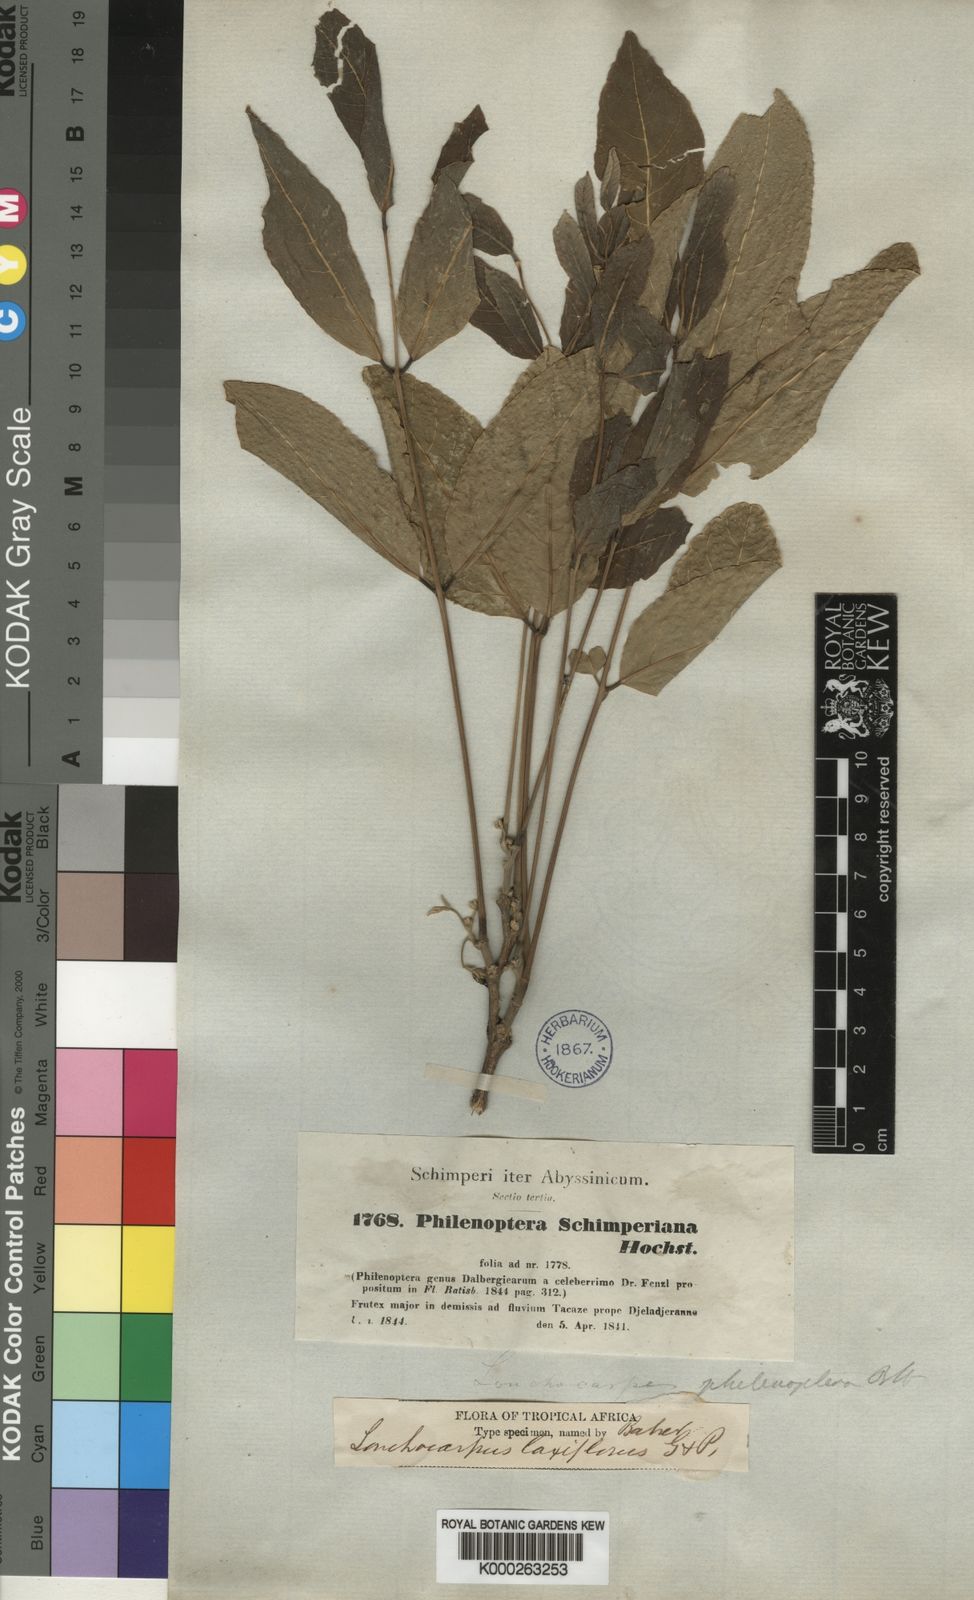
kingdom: Plantae
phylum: Tracheophyta
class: Magnoliopsida
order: Fabales
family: Fabaceae
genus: Philenoptera
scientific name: Philenoptera laxiflora
